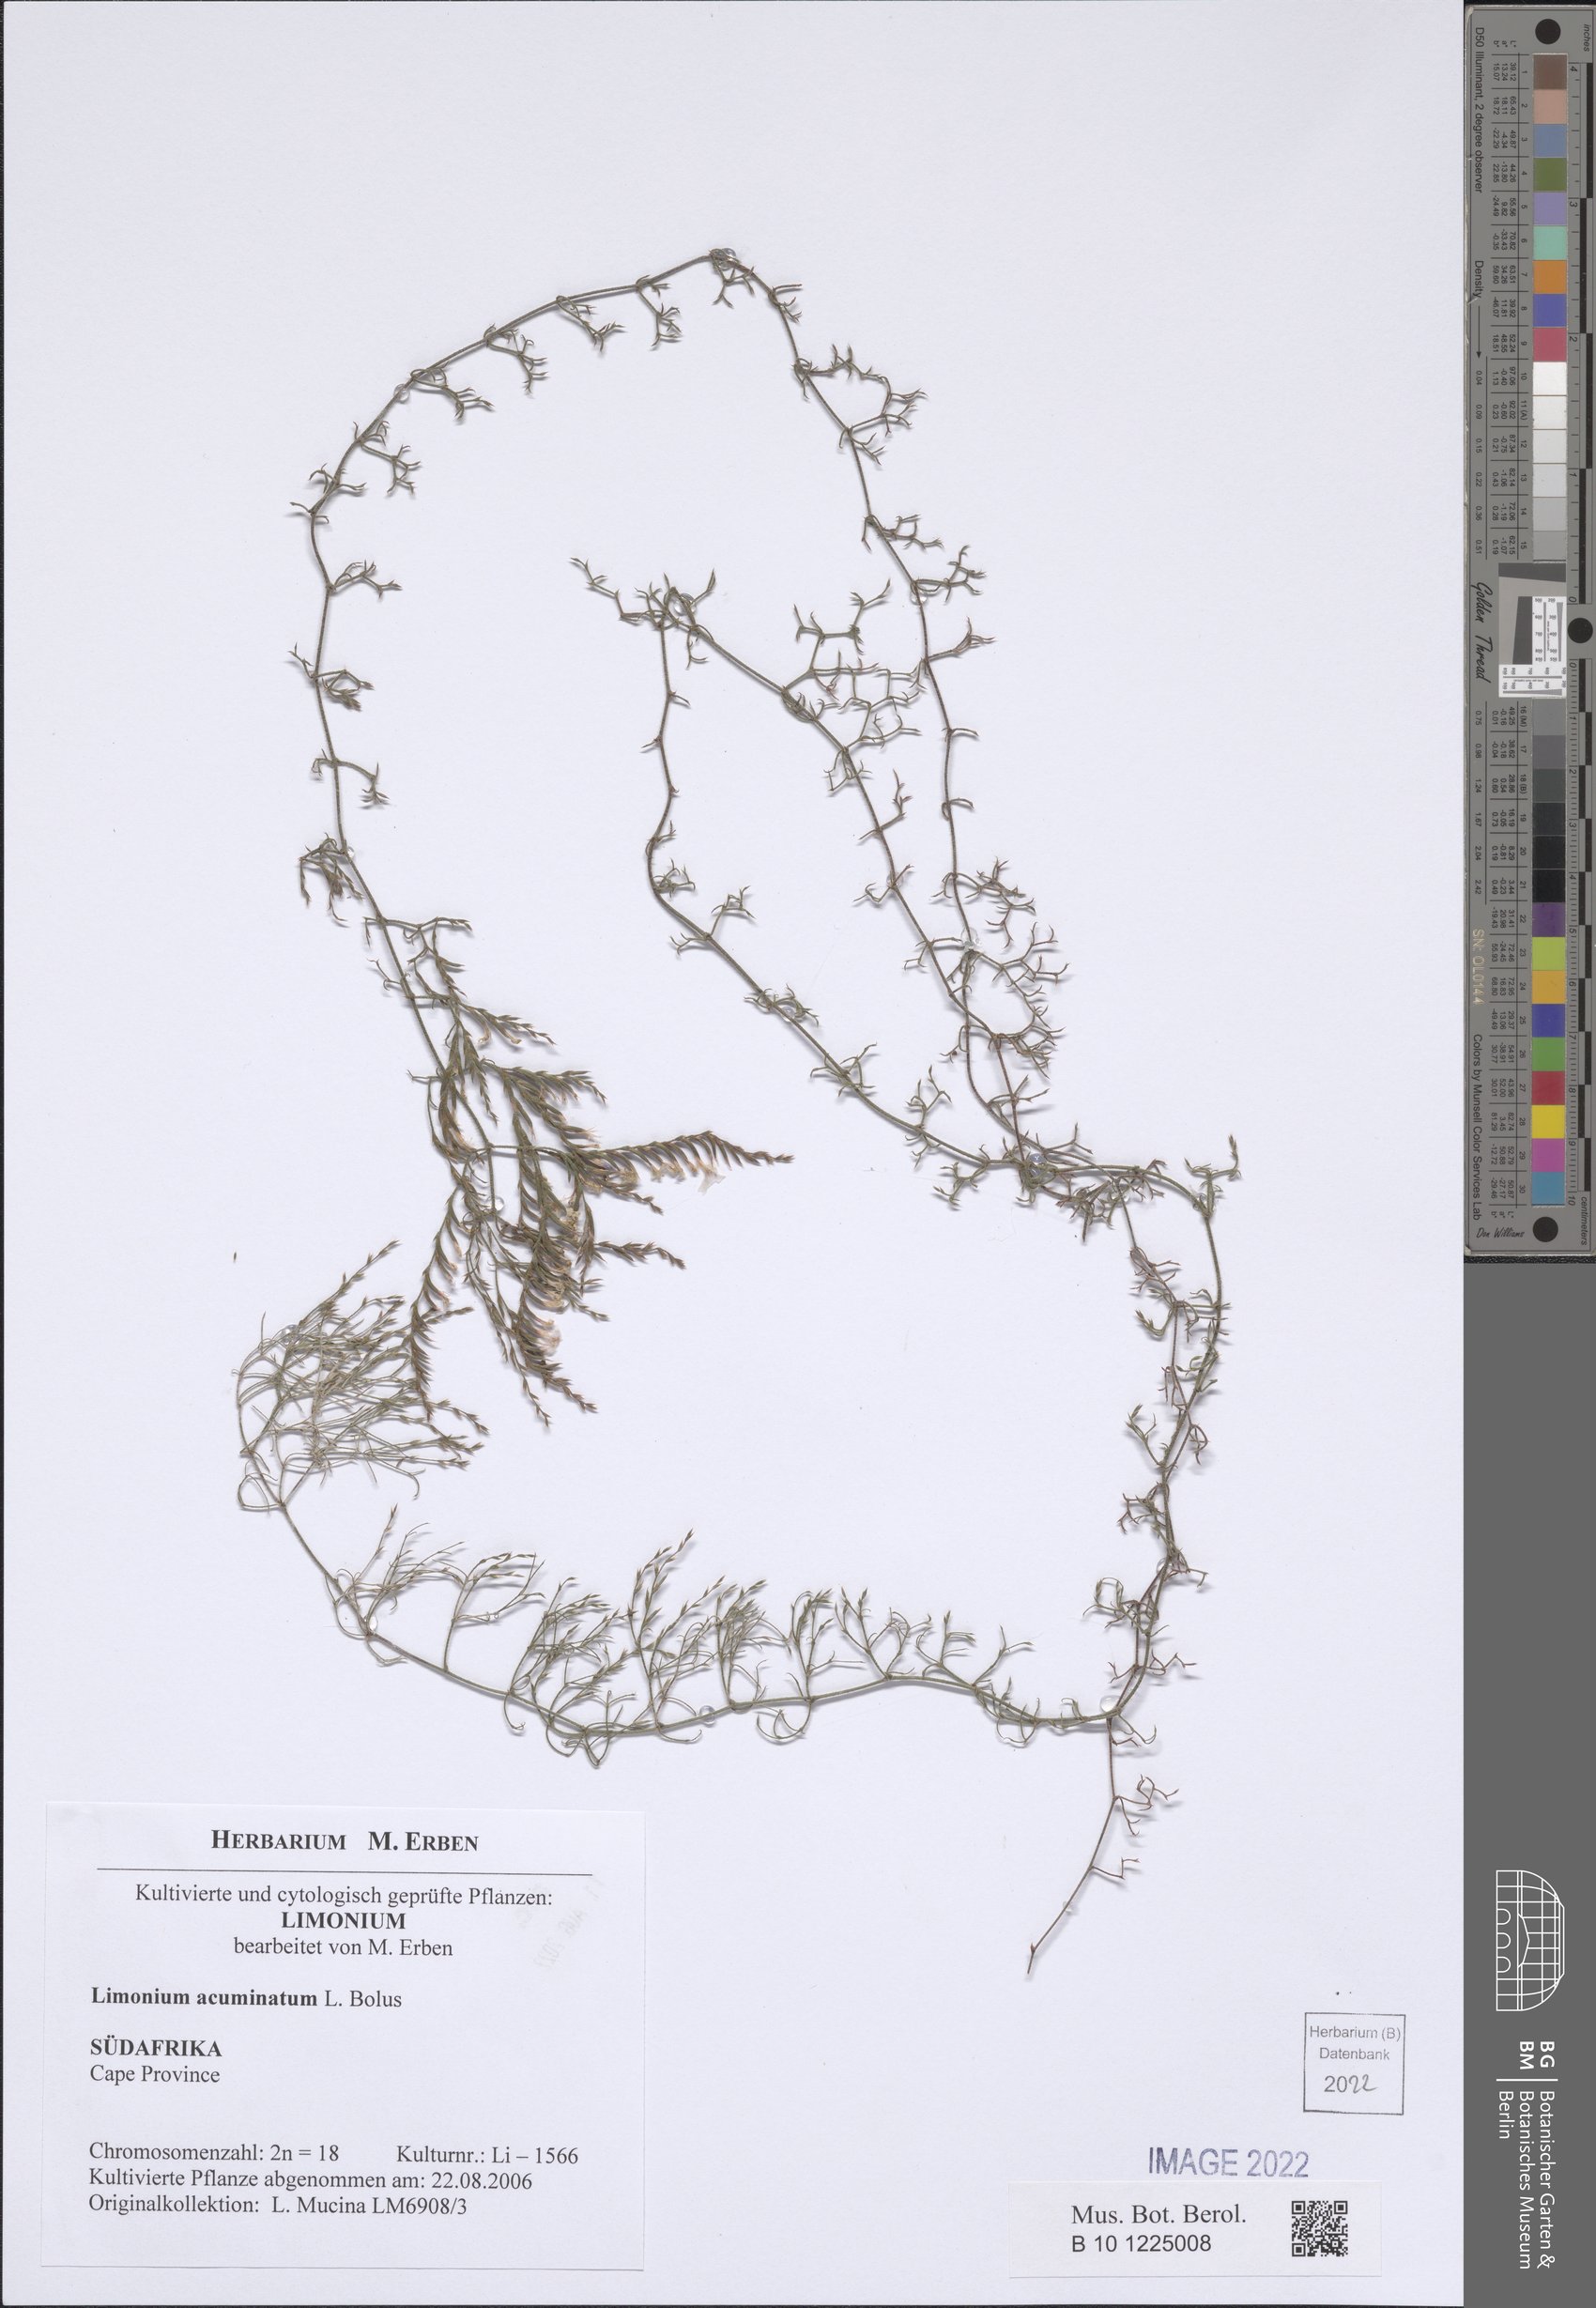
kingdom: Plantae
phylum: Tracheophyta
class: Magnoliopsida
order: Caryophyllales
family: Plumbaginaceae
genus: Limonium
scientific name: Limonium acuminatum
